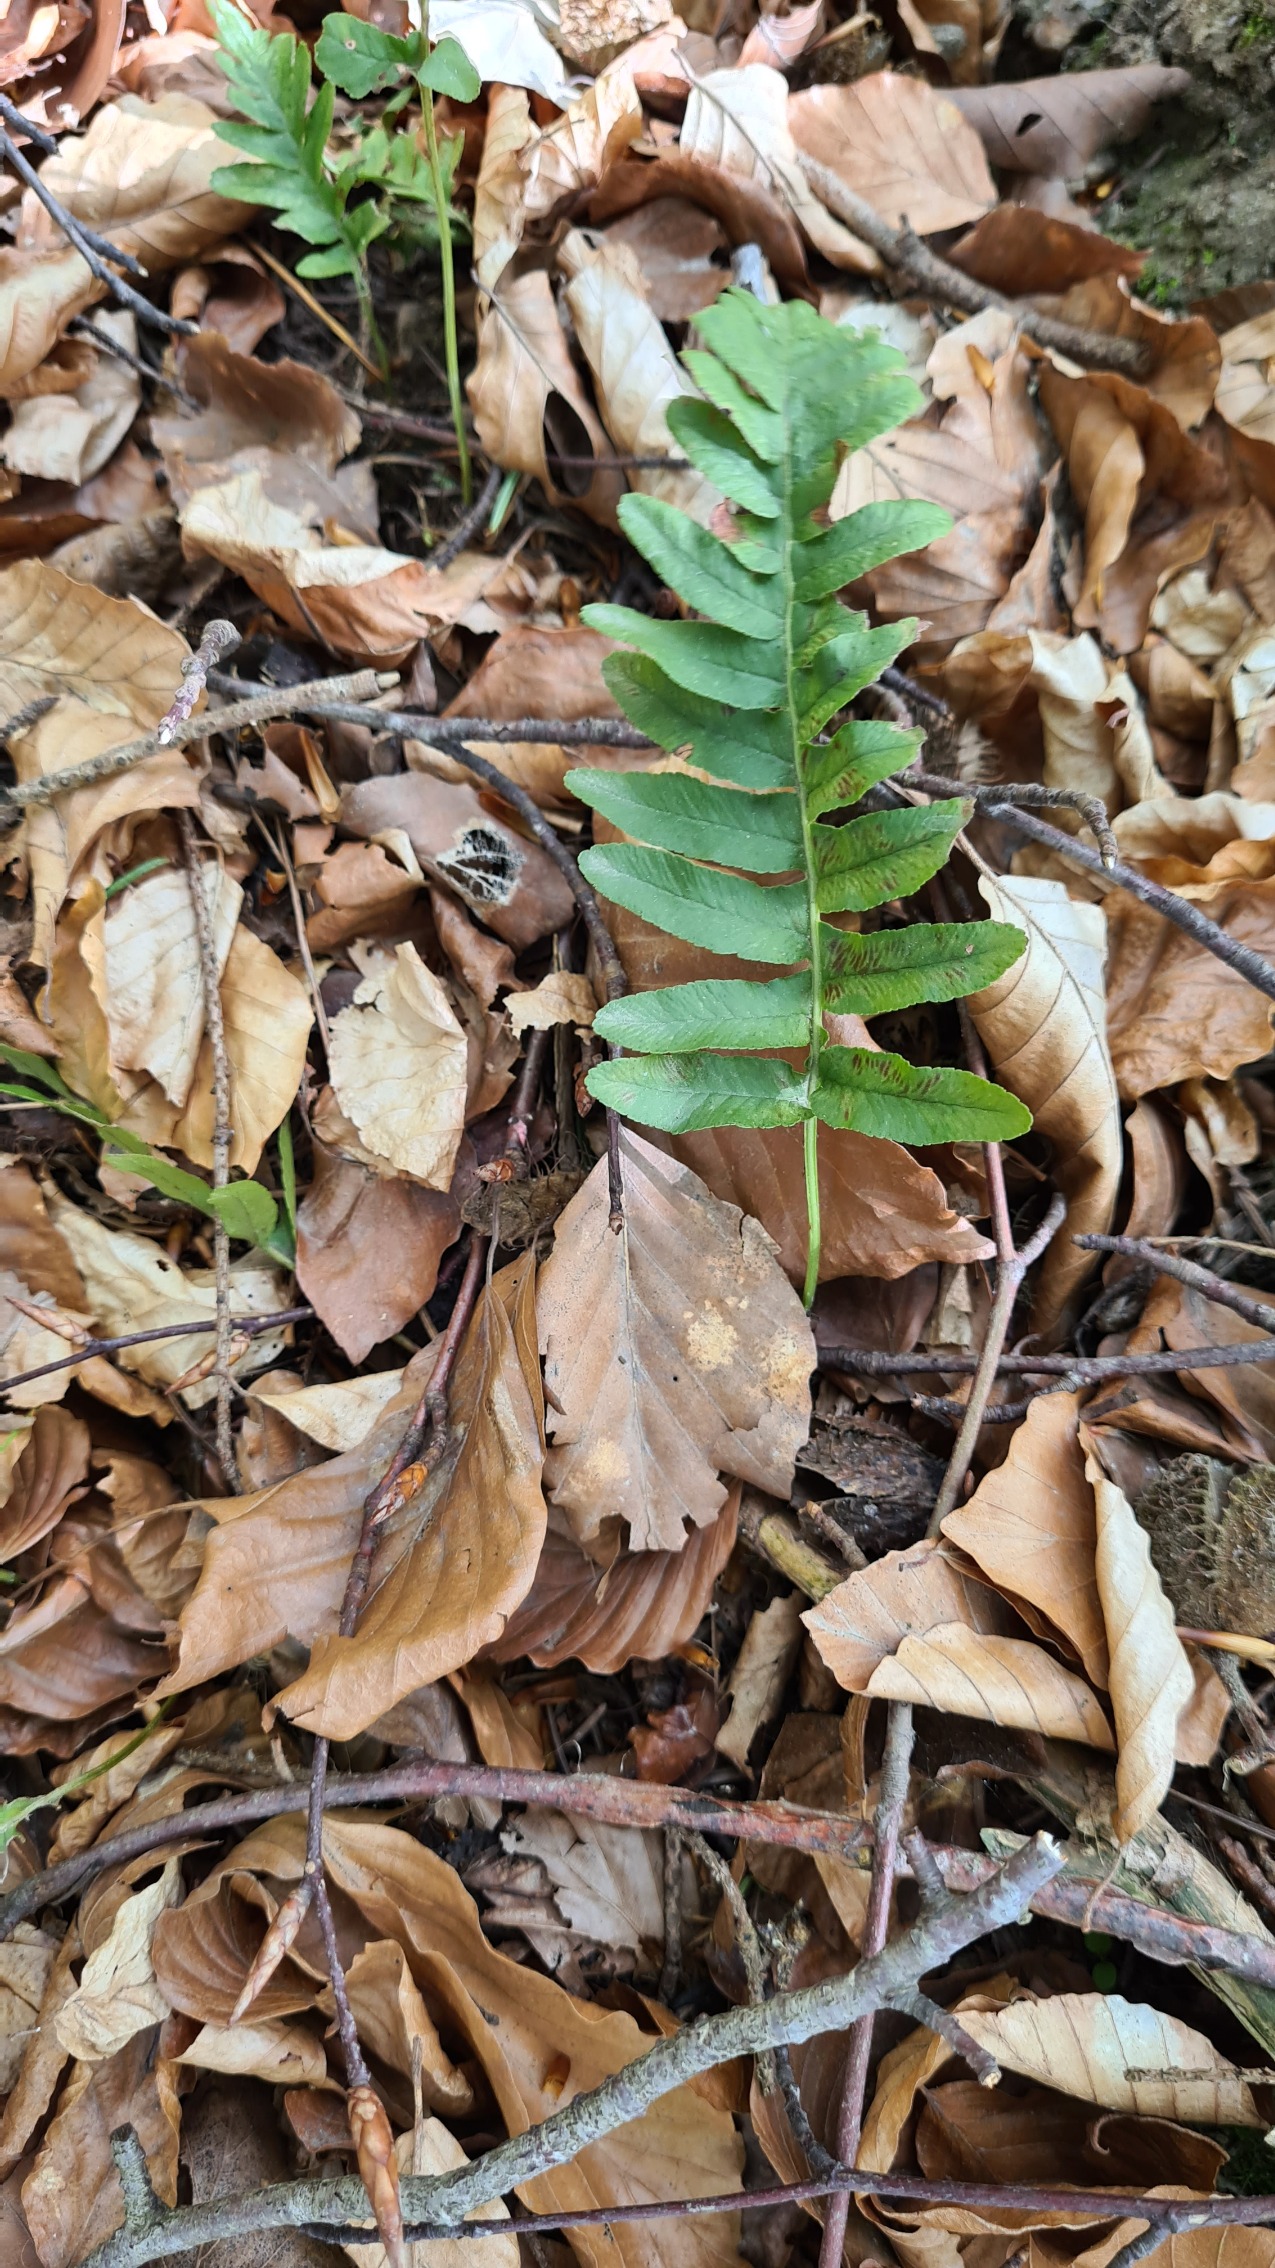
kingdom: Plantae
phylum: Tracheophyta
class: Polypodiopsida
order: Polypodiales
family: Polypodiaceae
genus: Polypodium
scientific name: Polypodium vulgare
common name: Almindelig engelsød
